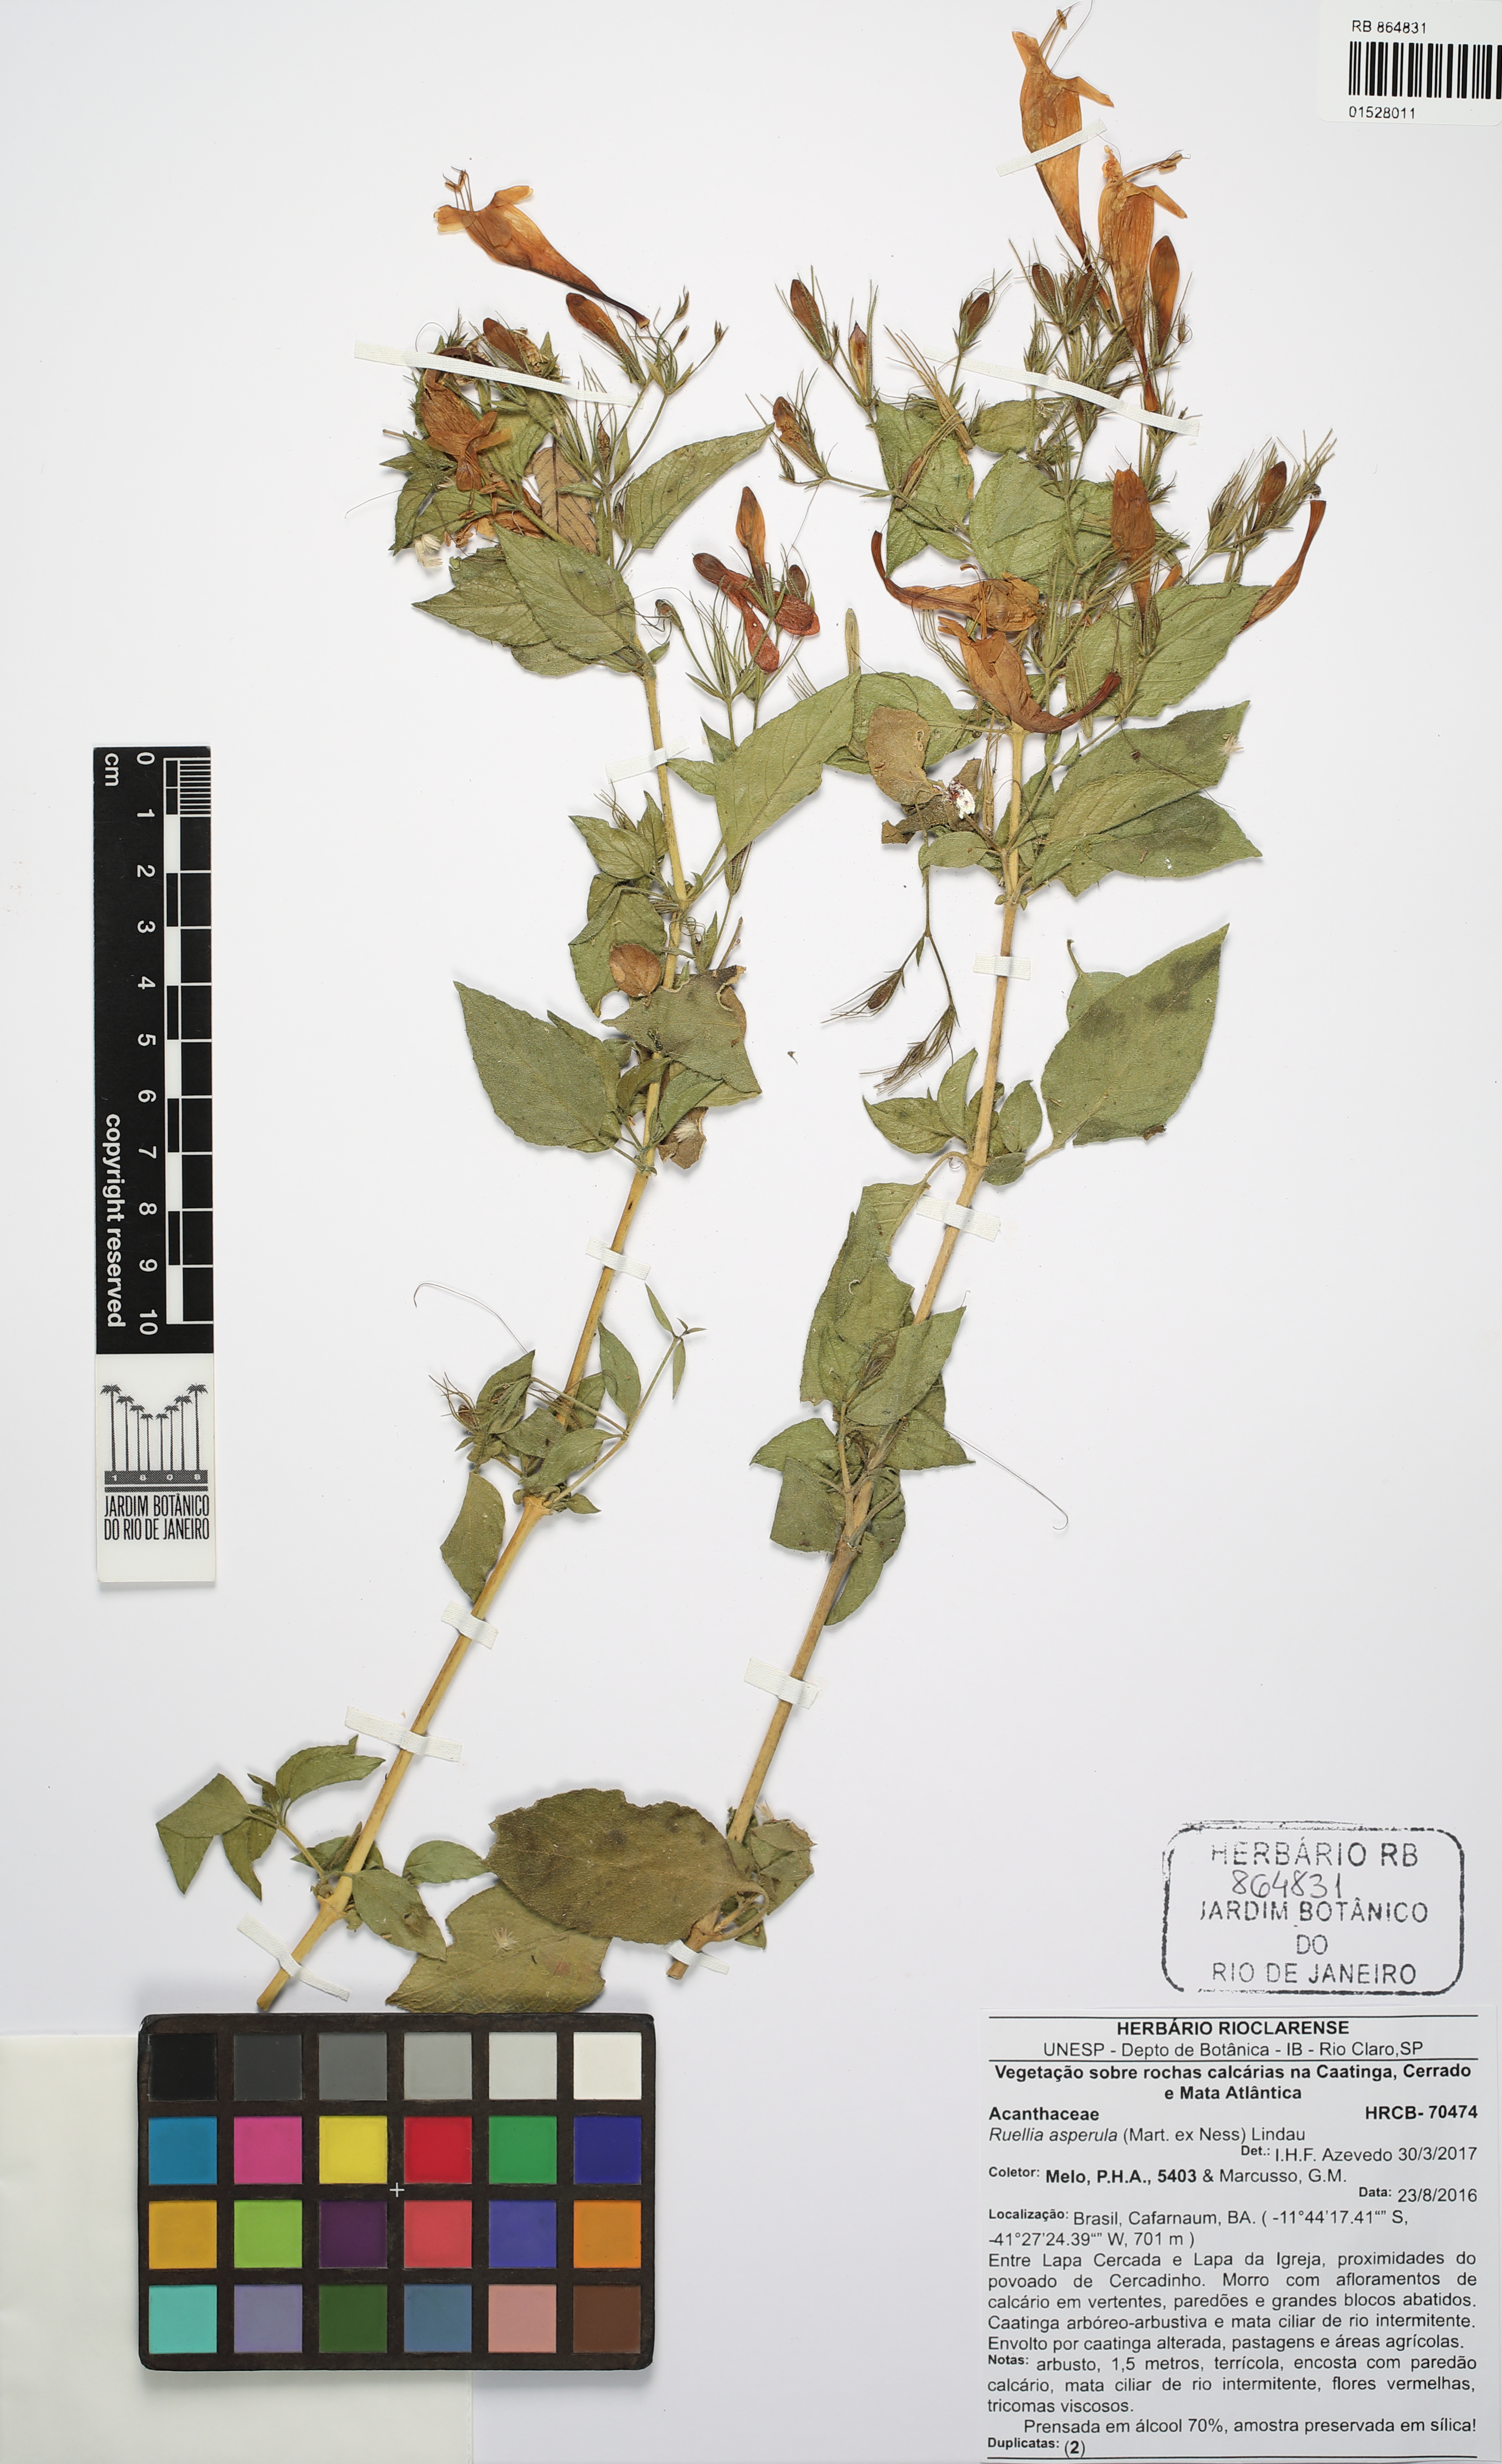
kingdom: Plantae
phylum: Tracheophyta
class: Magnoliopsida
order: Lamiales
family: Acanthaceae
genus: Ruellia
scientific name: Ruellia asperula
